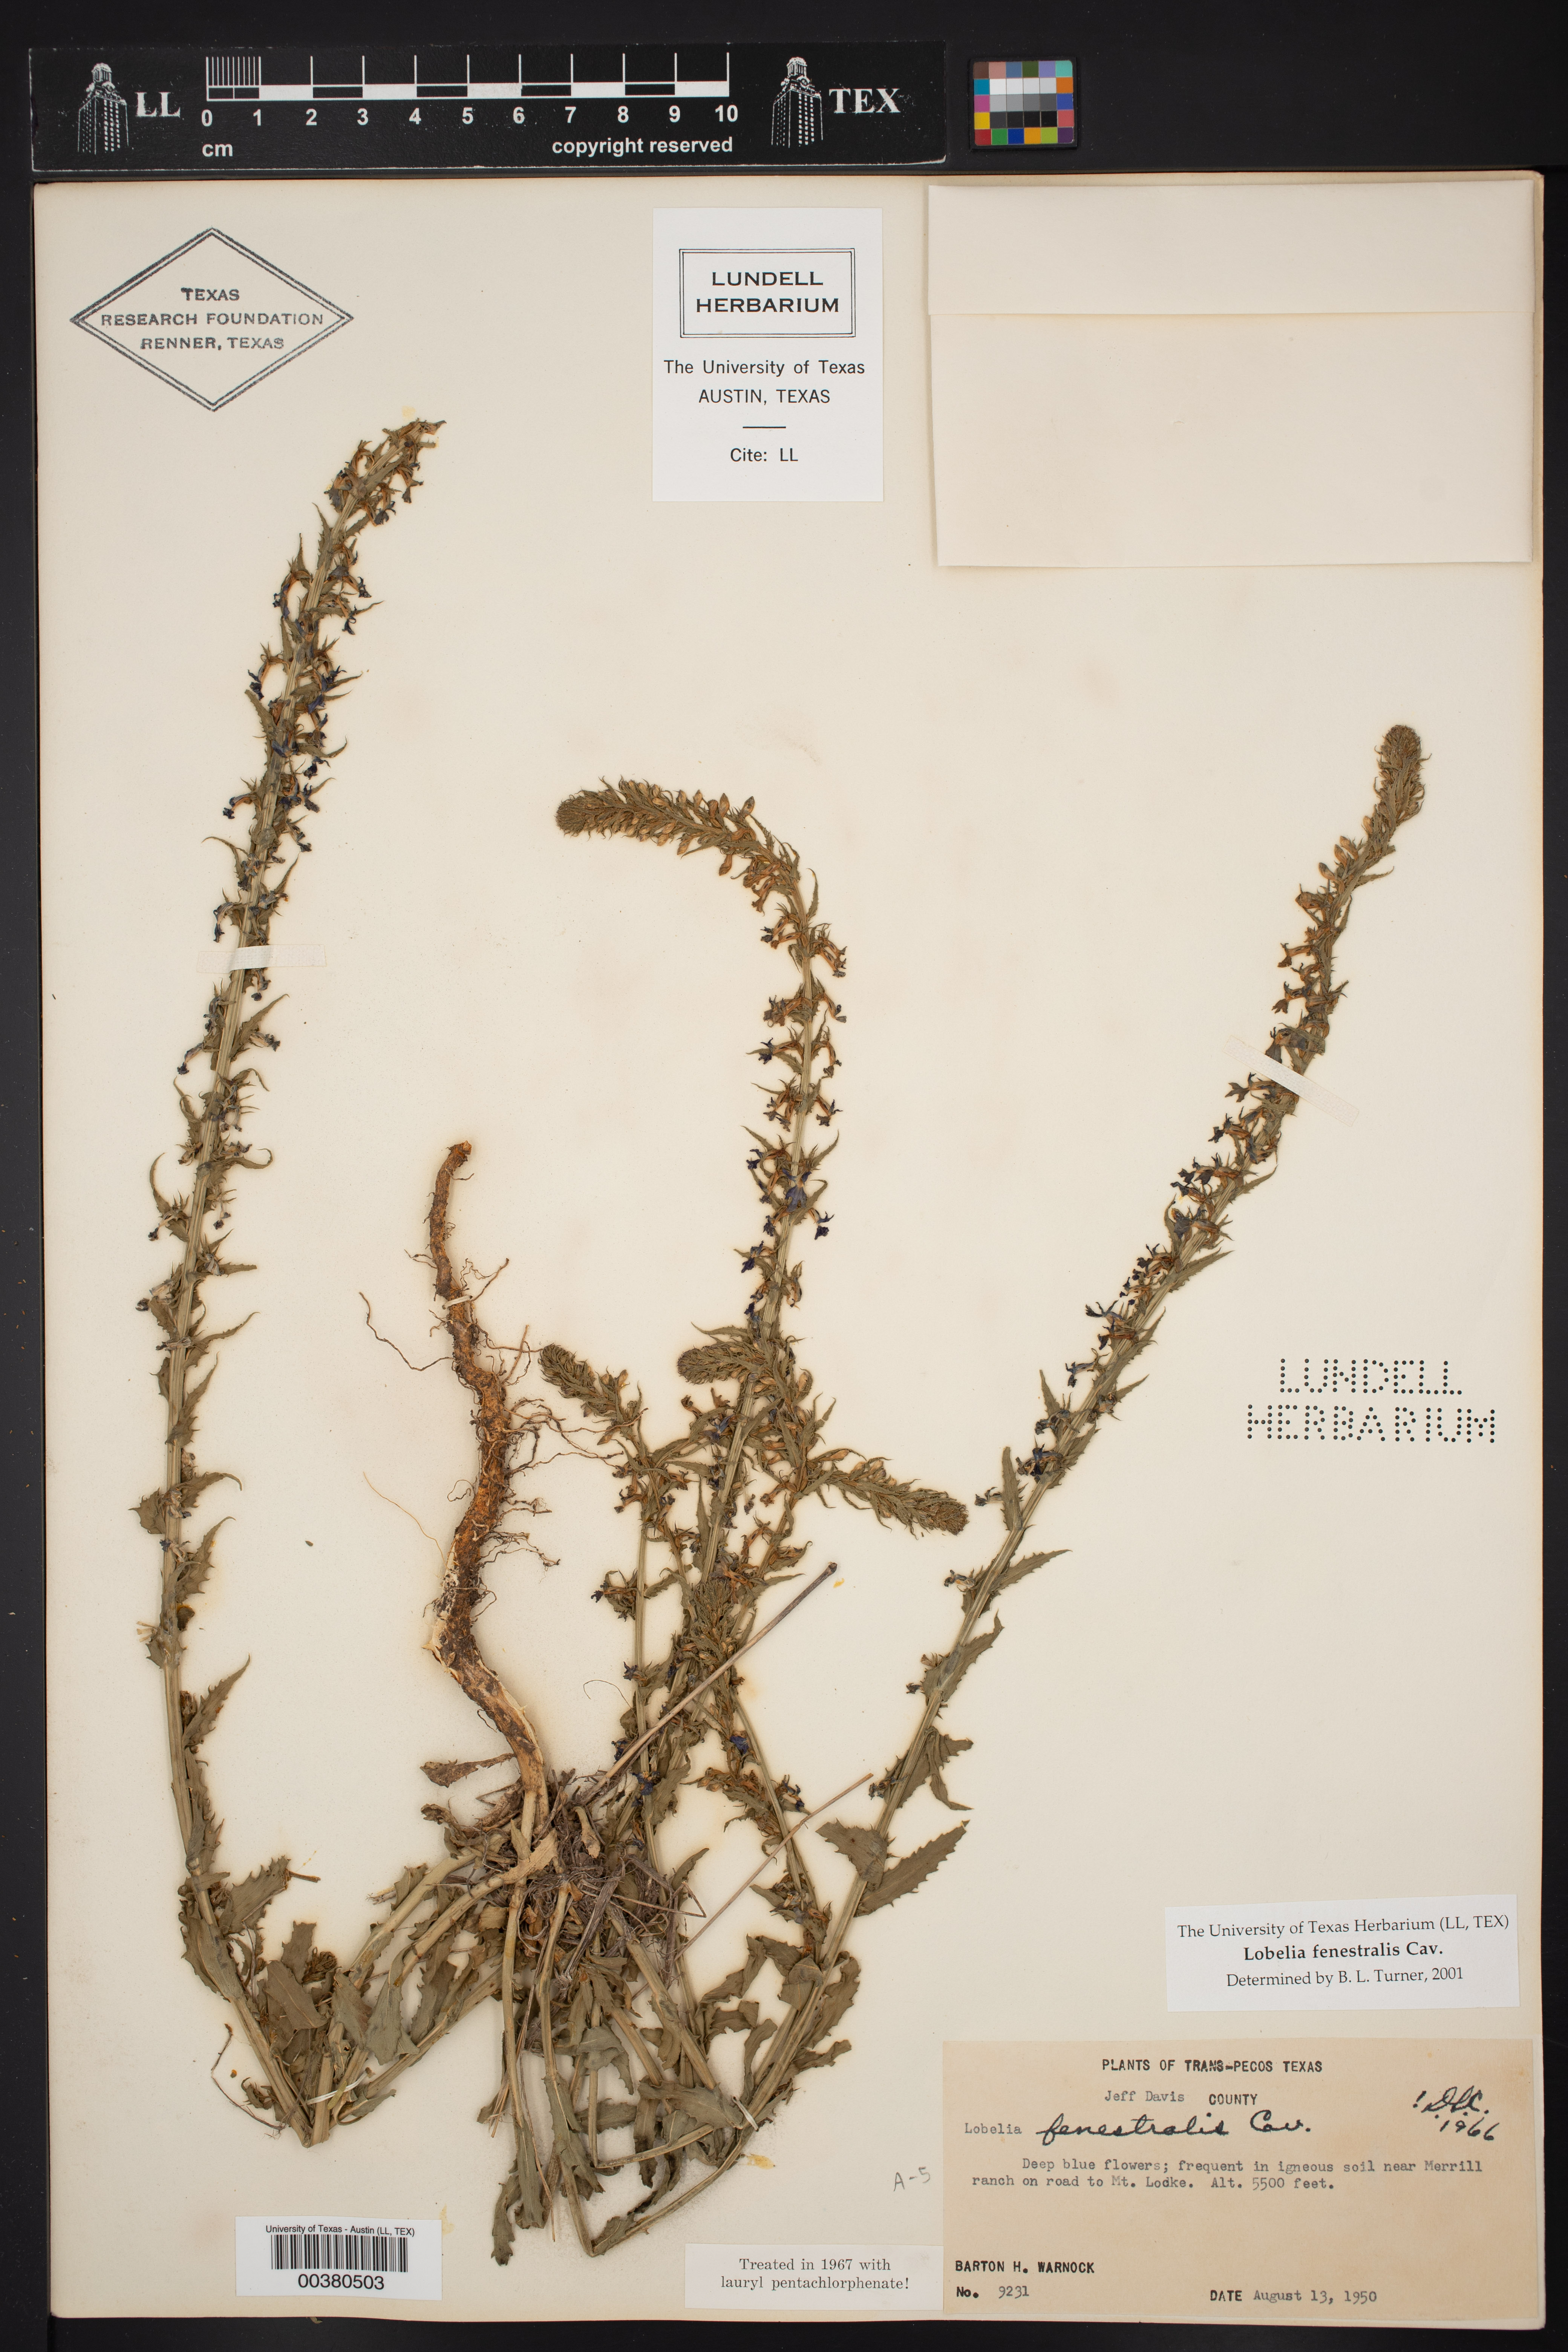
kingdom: Plantae
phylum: Tracheophyta
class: Magnoliopsida
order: Asterales
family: Campanulaceae
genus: Lobelia
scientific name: Lobelia fenestralis
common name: Leafy lobelia
